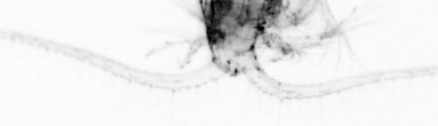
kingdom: Animalia
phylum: Arthropoda
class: Copepoda
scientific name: Copepoda
